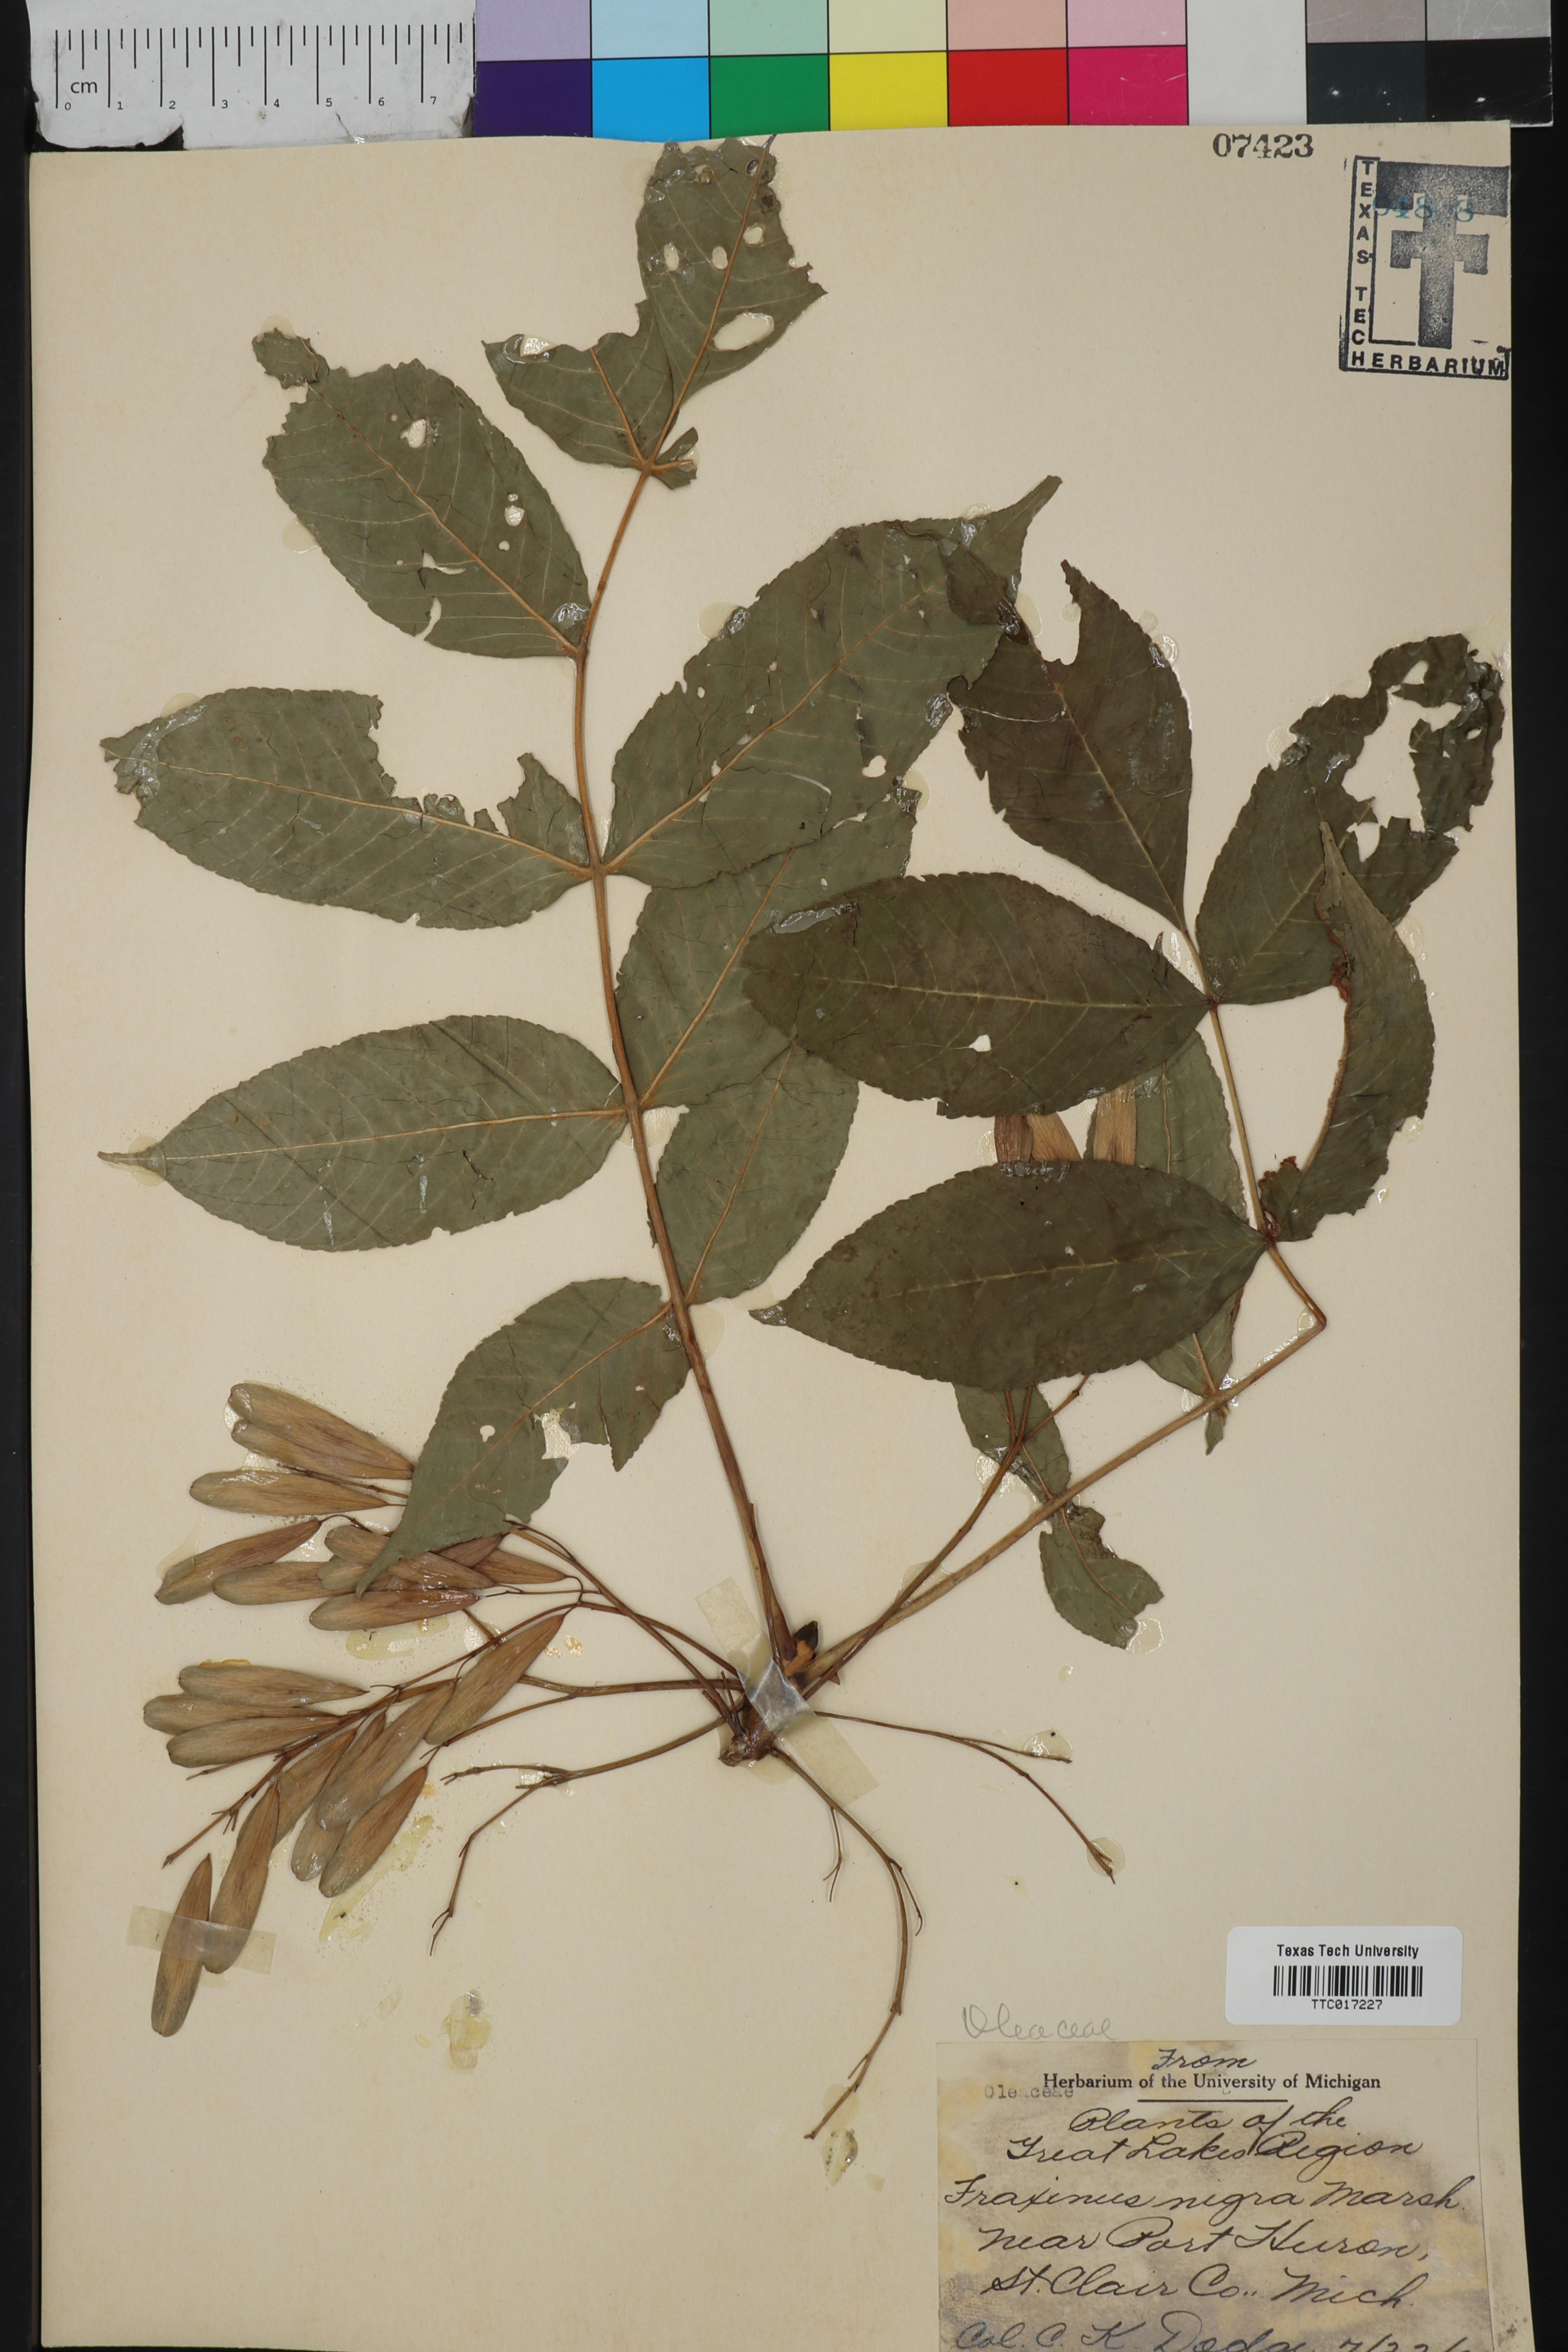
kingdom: Plantae
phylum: Tracheophyta
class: Magnoliopsida
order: Lamiales
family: Oleaceae
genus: Fraxinus
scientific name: Fraxinus nigra
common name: Black ash
